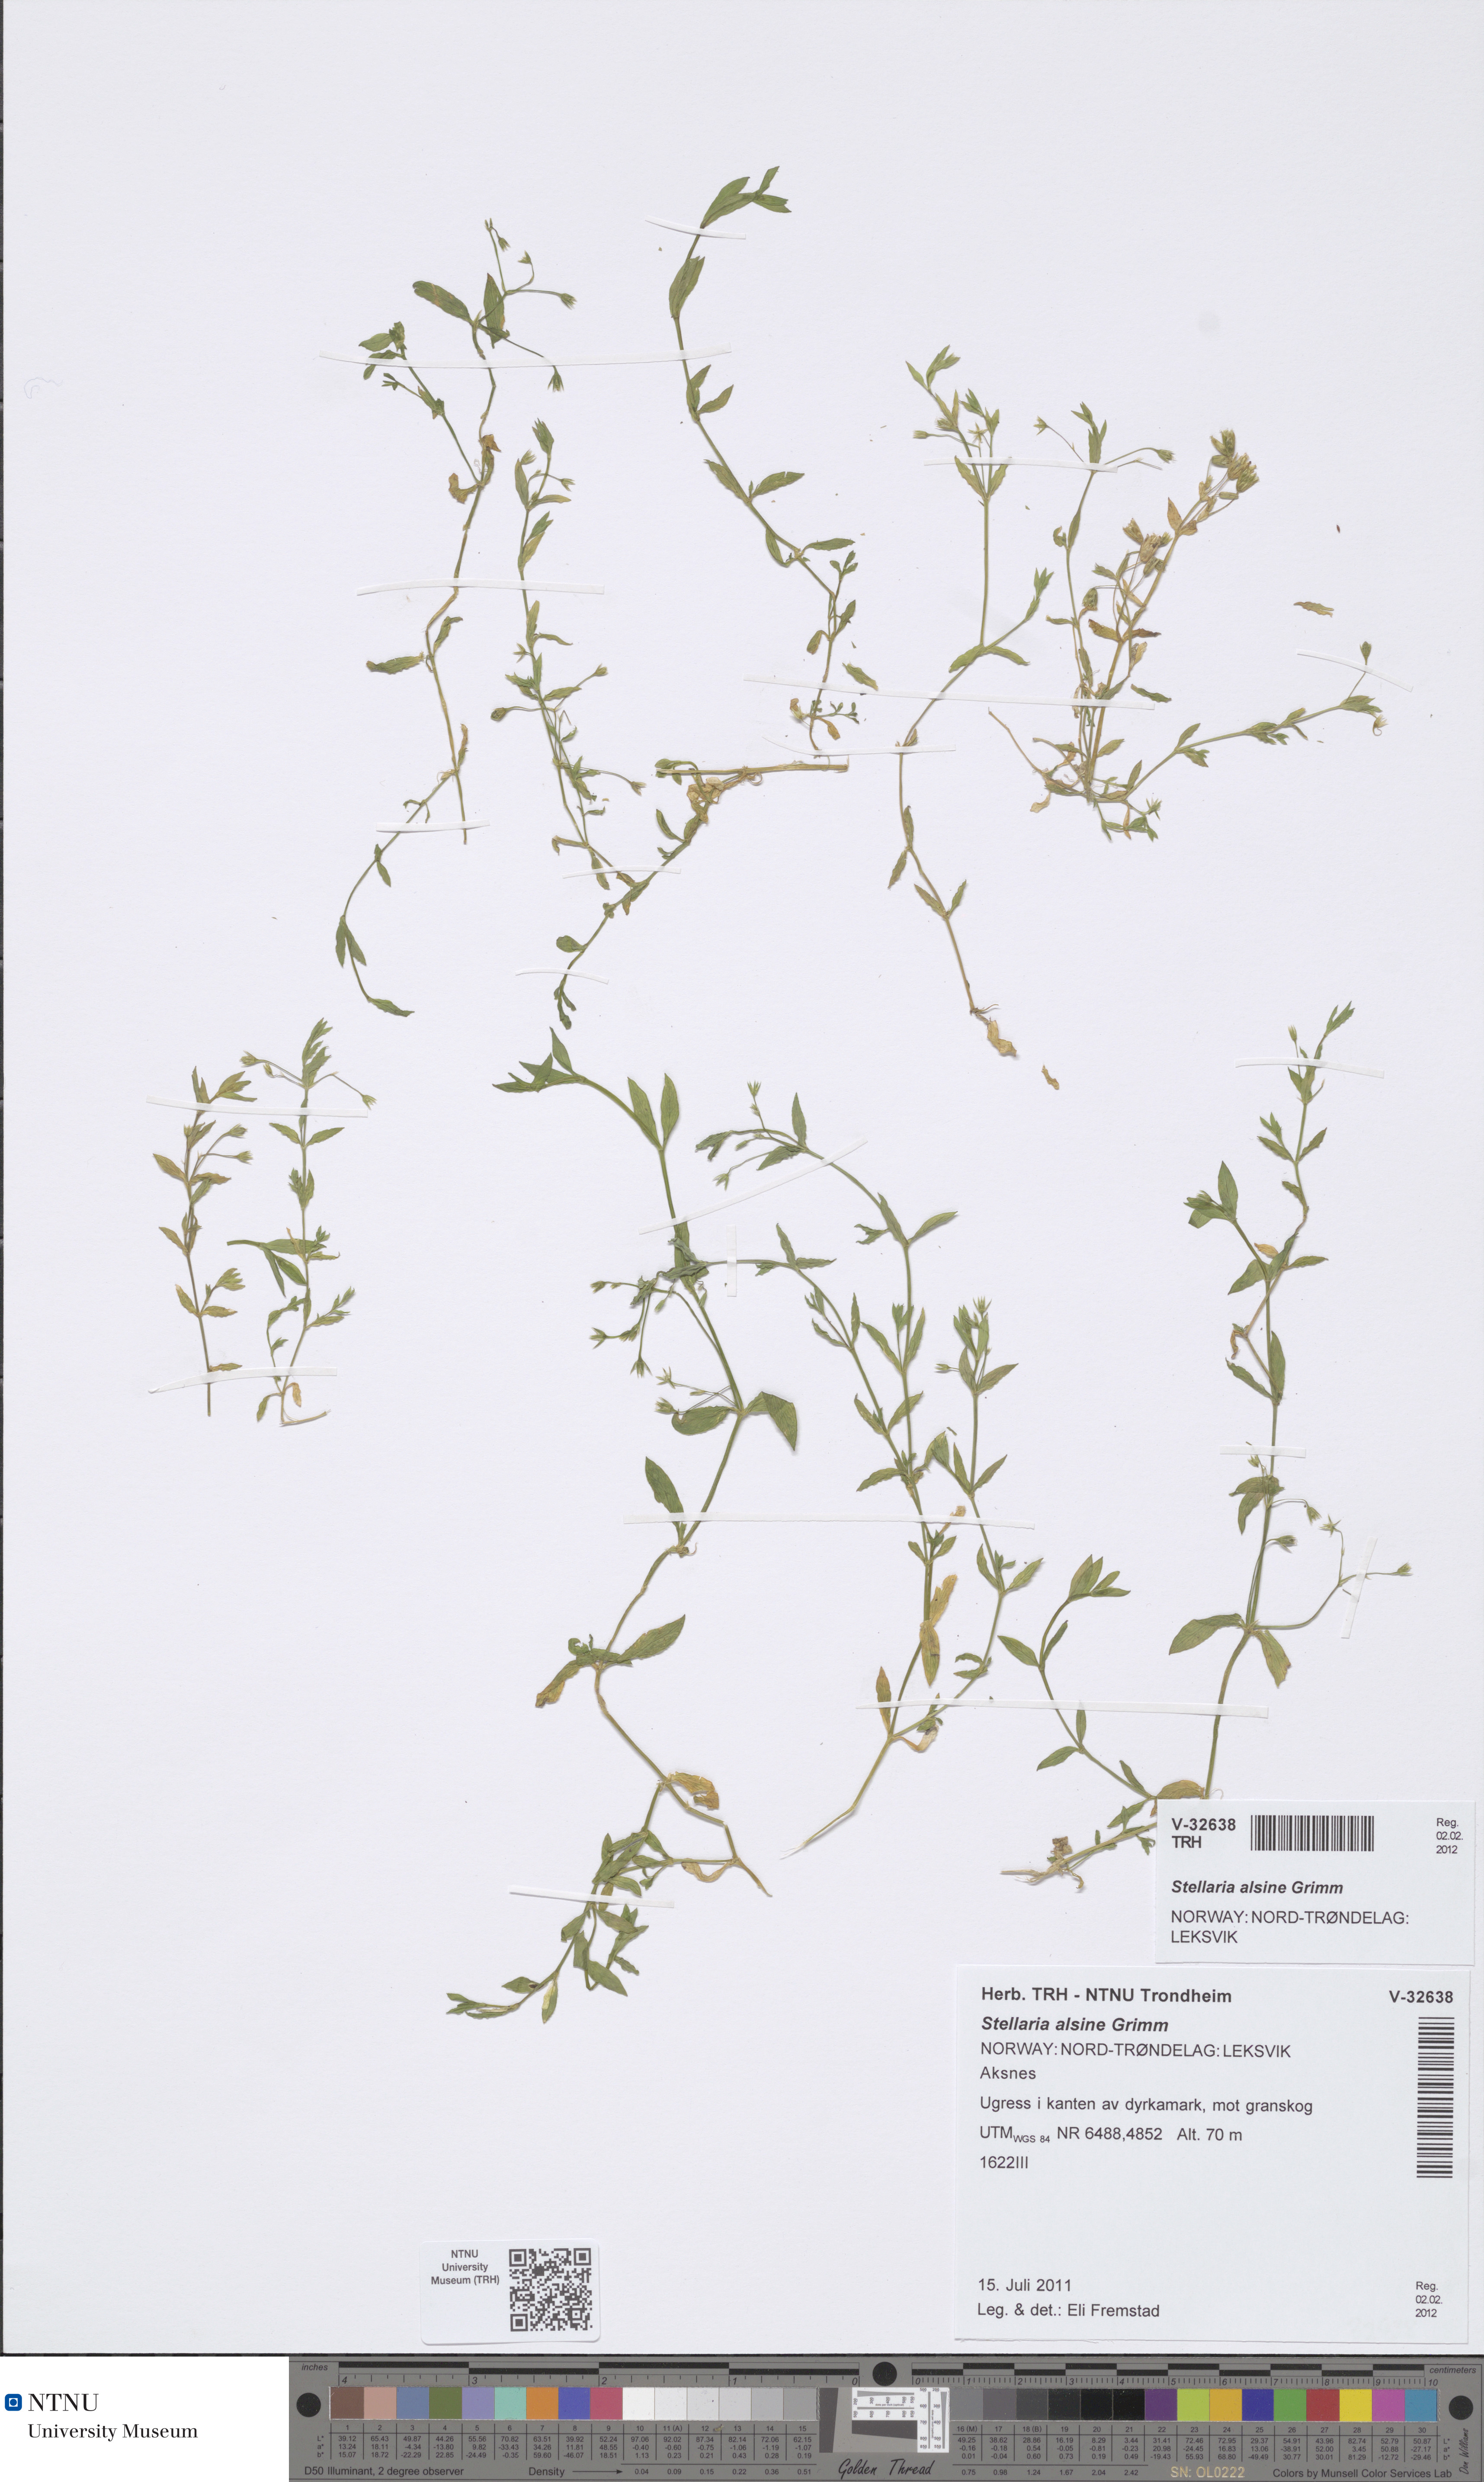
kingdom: Plantae
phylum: Tracheophyta
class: Magnoliopsida
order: Caryophyllales
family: Caryophyllaceae
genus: Stellaria
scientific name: Stellaria alsine
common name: Bog stitchwort
